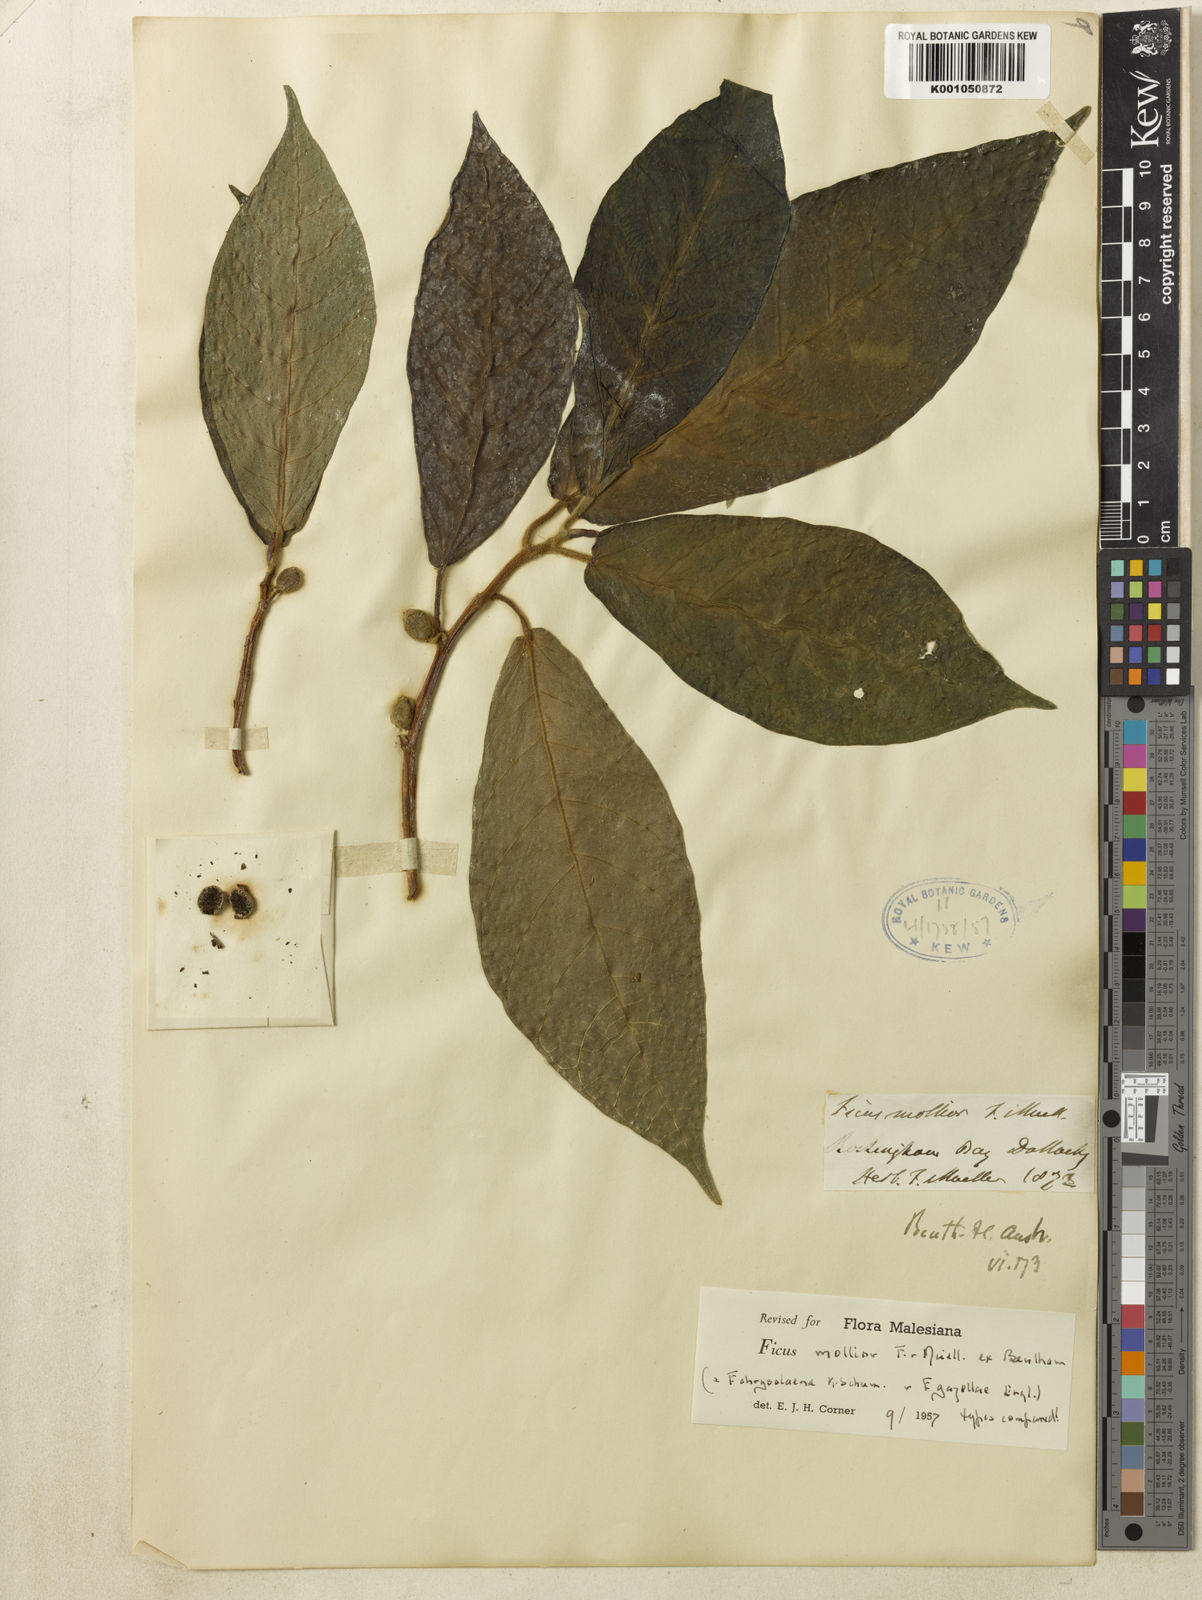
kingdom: Plantae
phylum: Tracheophyta
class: Magnoliopsida
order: Rosales
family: Moraceae
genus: Ficus
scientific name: Ficus mollior
